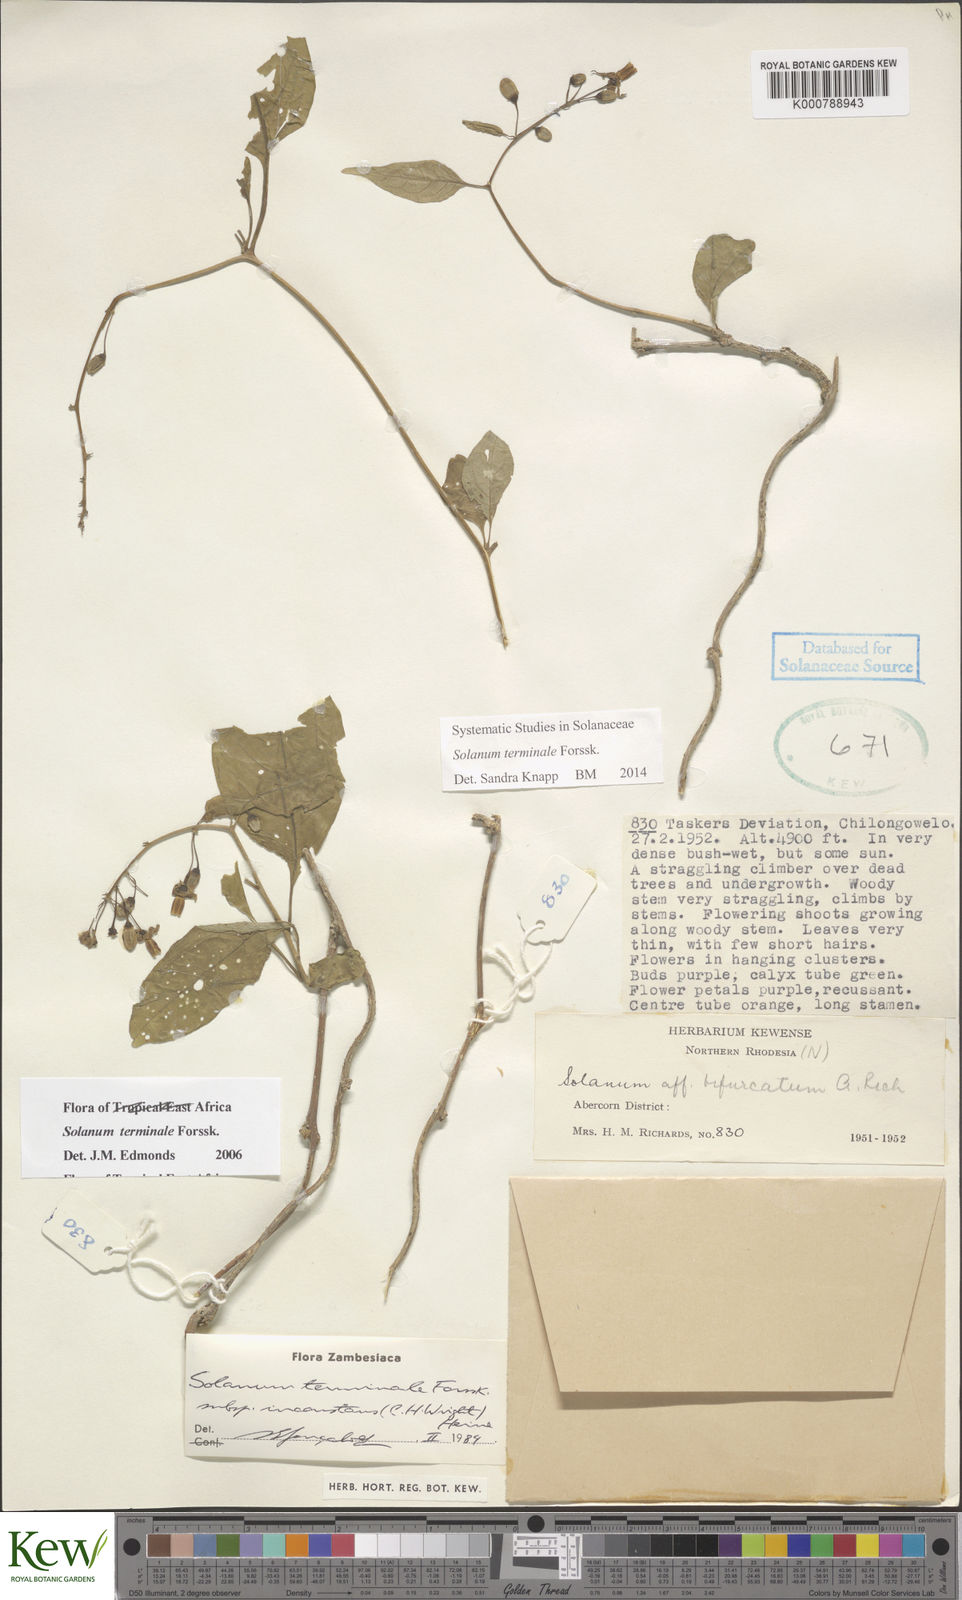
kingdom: Plantae
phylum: Tracheophyta
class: Magnoliopsida
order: Solanales
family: Solanaceae
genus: Solanum
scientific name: Solanum terminale
